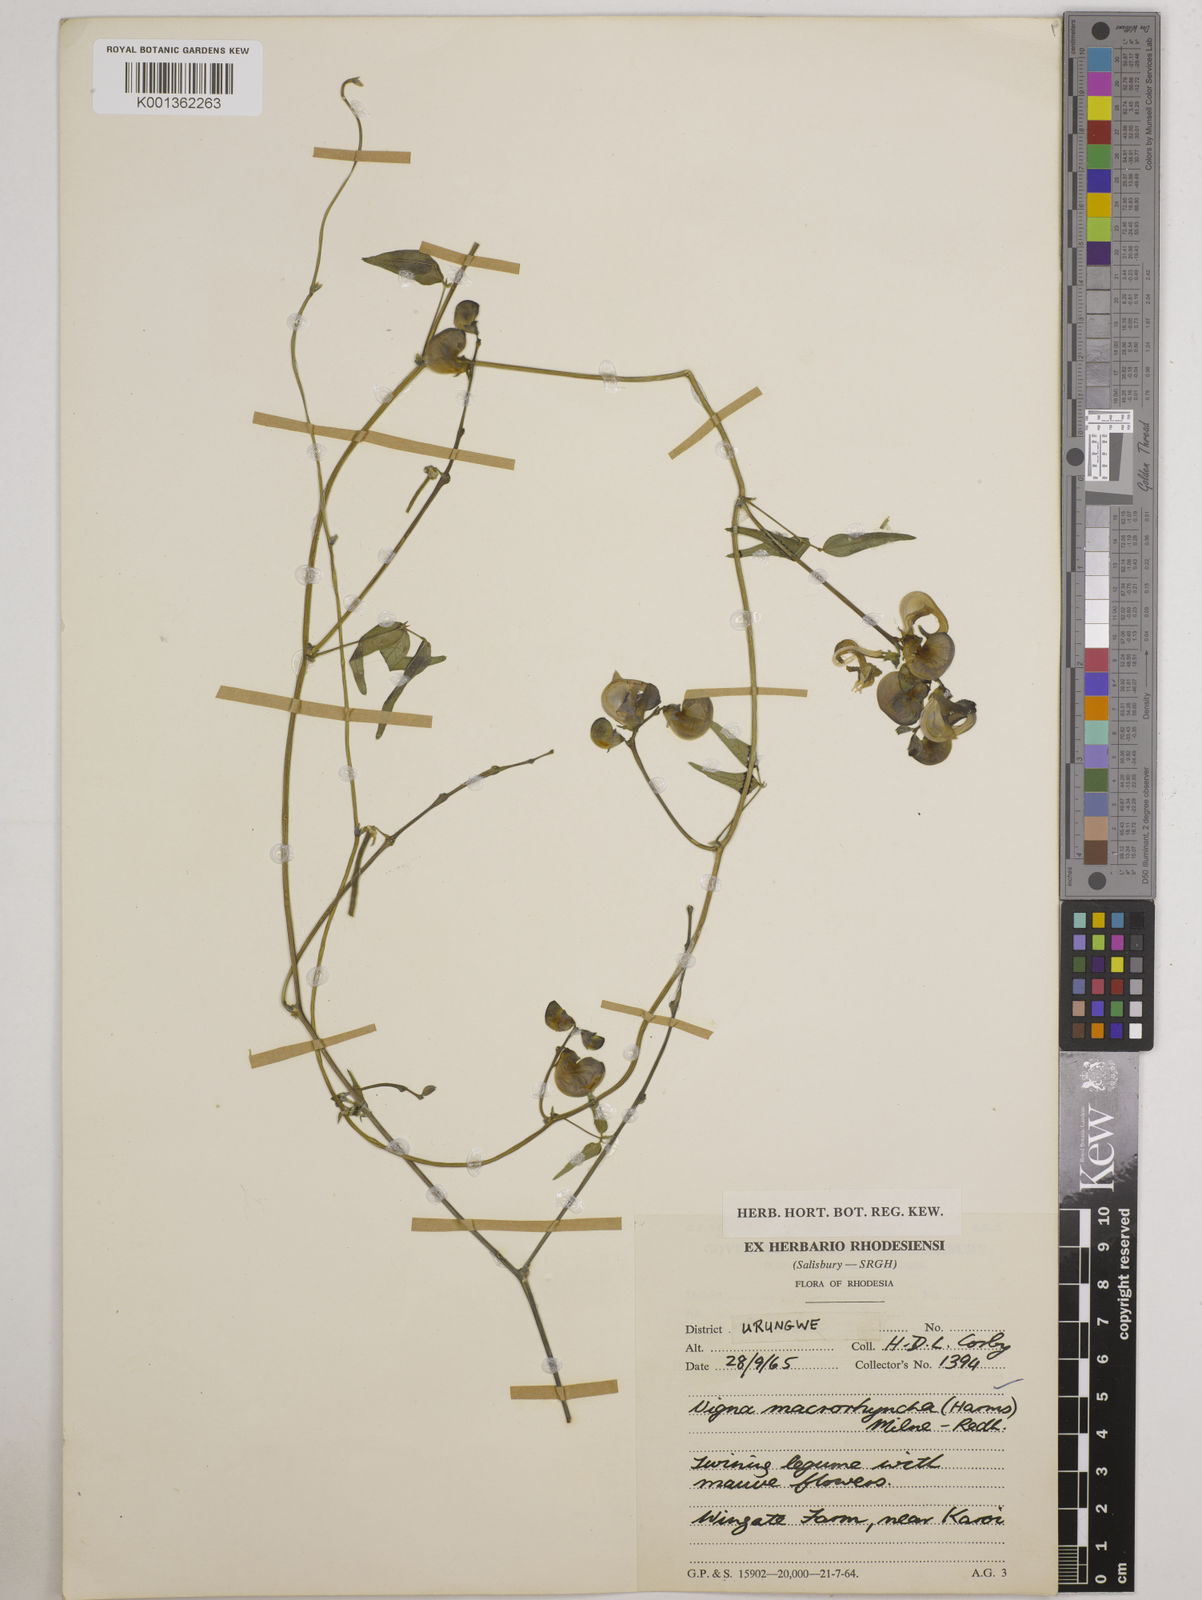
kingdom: Plantae
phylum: Tracheophyta
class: Magnoliopsida
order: Fabales
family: Fabaceae
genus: Wajira
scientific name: Wajira grahamiana
